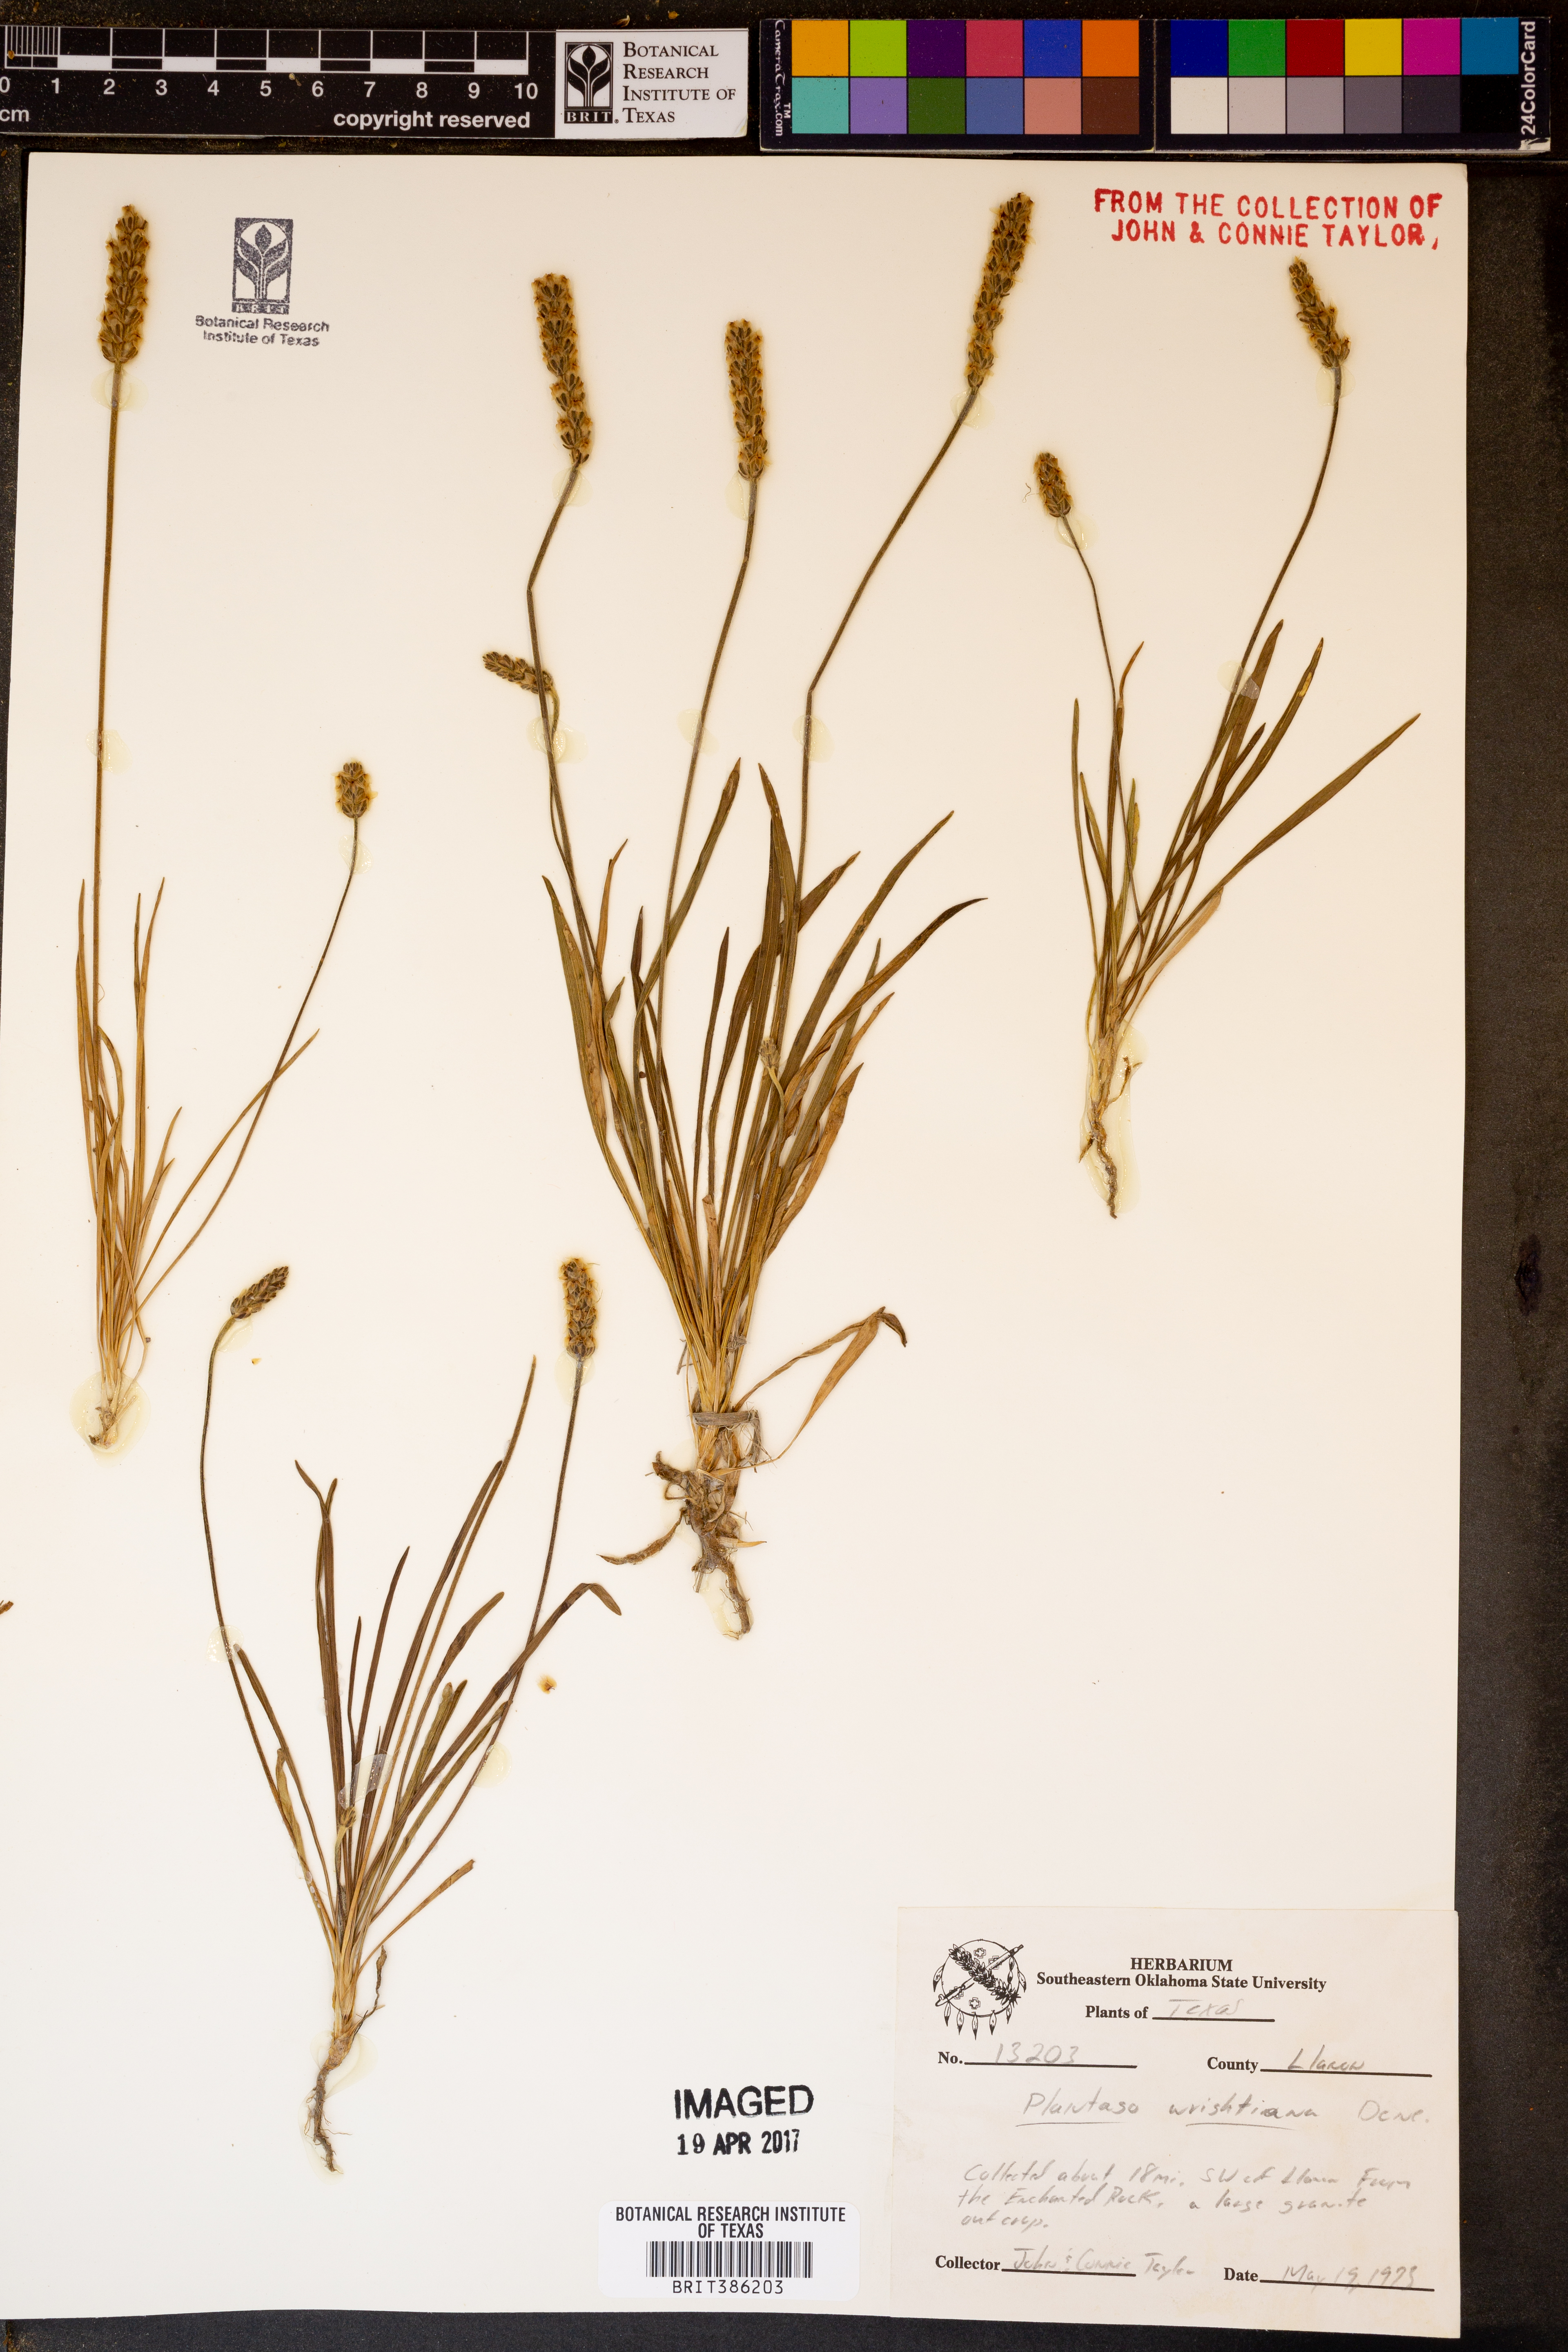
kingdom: Plantae
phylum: Tracheophyta
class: Magnoliopsida
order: Lamiales
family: Plantaginaceae
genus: Plantago
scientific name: Plantago wrightiana
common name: Wright's plantain
